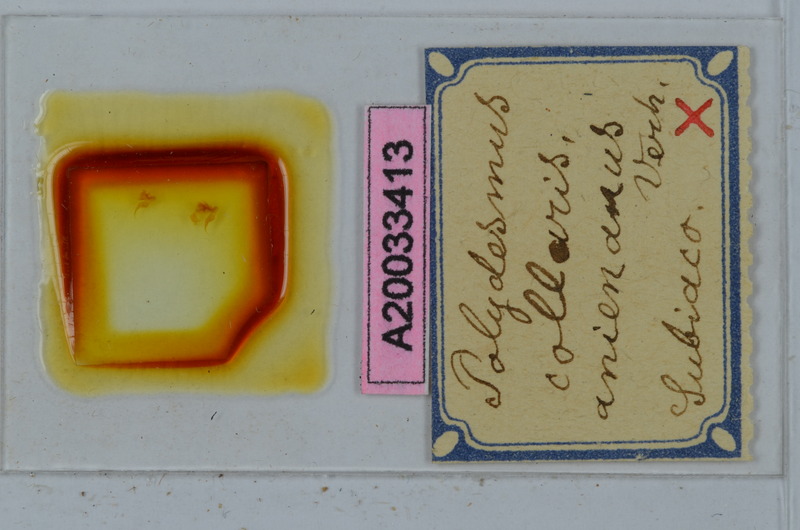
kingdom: Animalia
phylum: Arthropoda
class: Diplopoda
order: Polydesmida
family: Polydesmidae
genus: Polydesmus
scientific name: Polydesmus collaris
